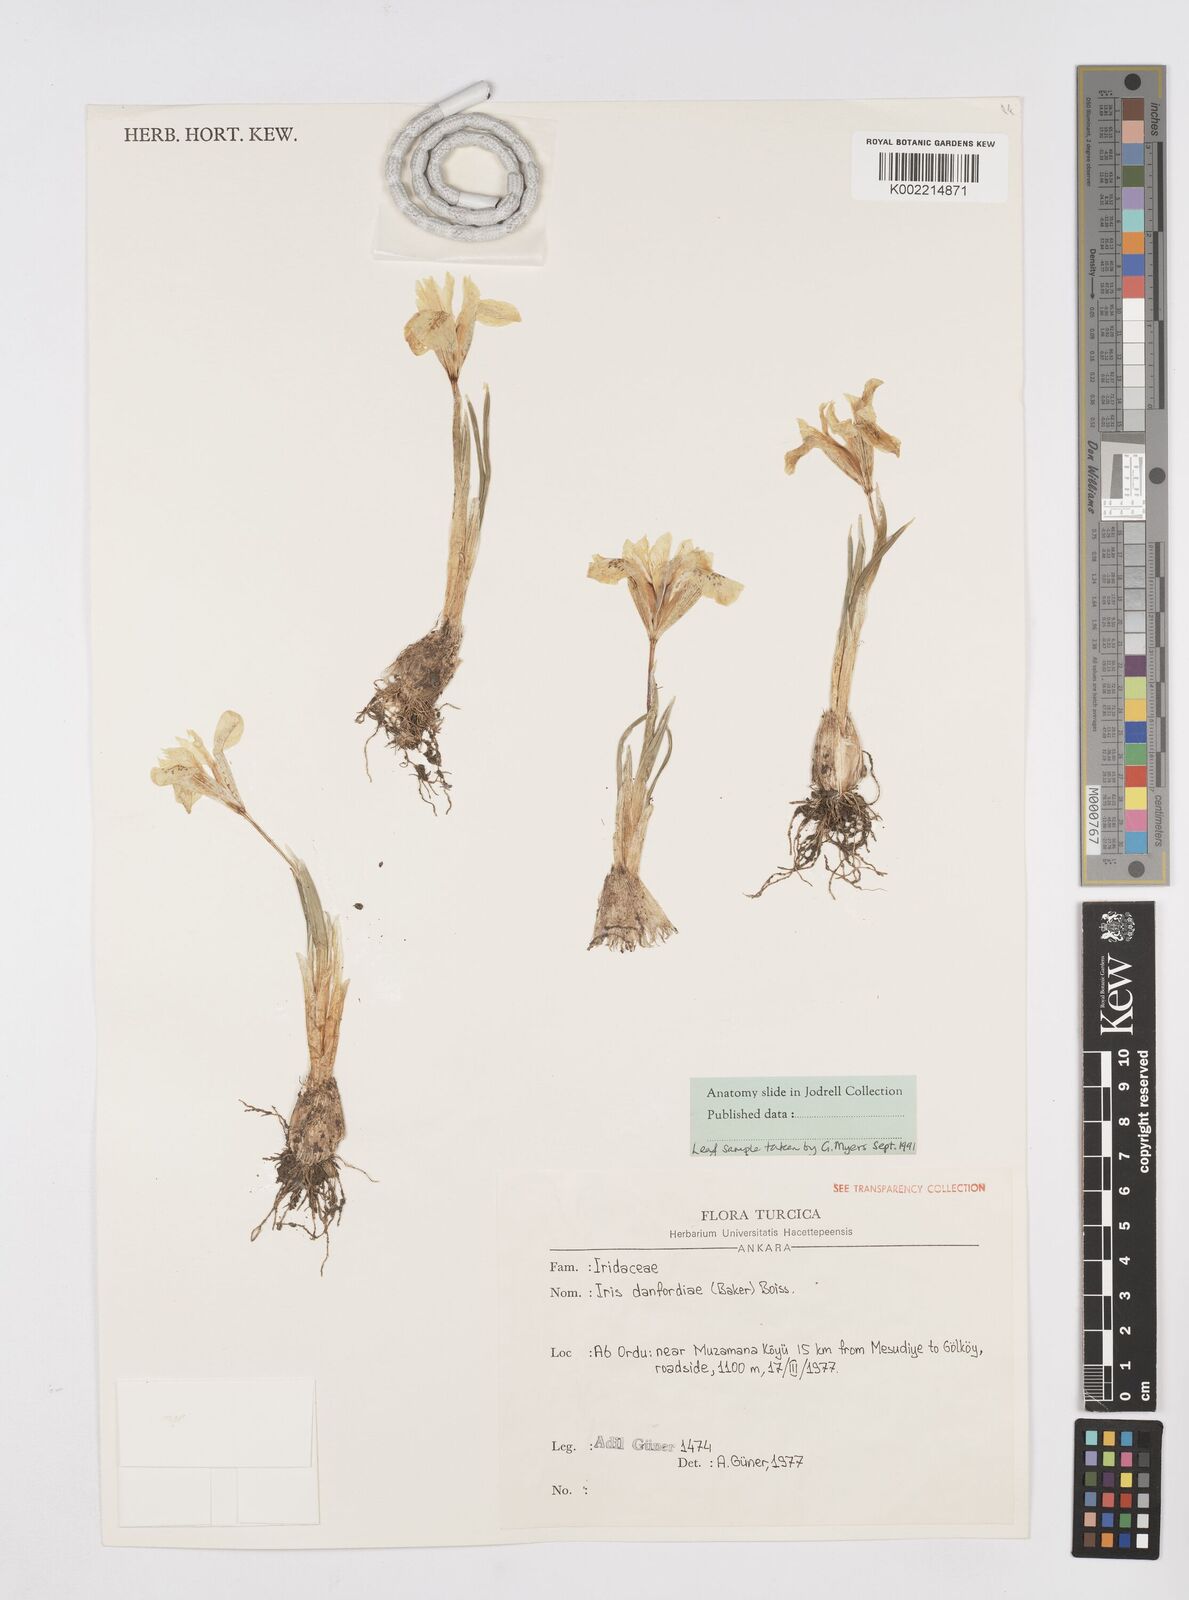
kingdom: Plantae
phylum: Tracheophyta
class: Liliopsida
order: Asparagales
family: Iridaceae
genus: Iris
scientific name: Iris danfordiae
